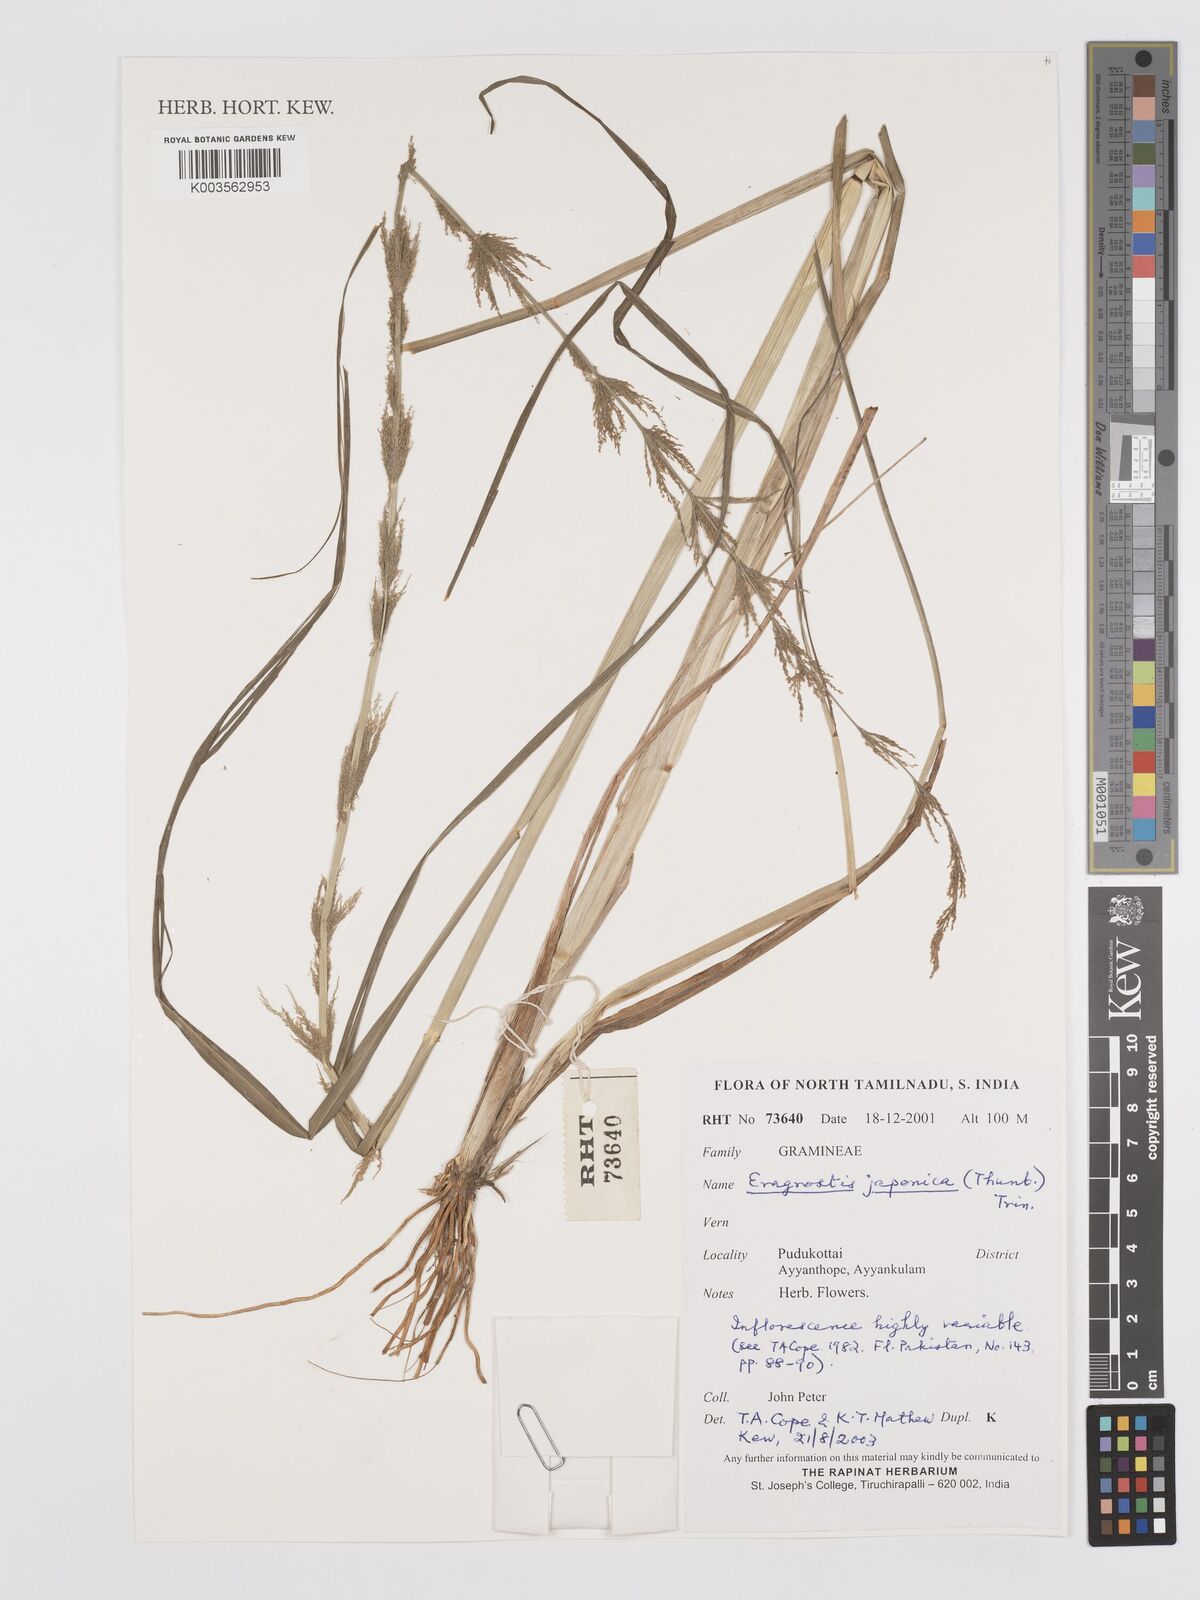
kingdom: Plantae
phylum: Tracheophyta
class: Liliopsida
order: Poales
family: Poaceae
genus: Eragrostis
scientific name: Eragrostis japonica
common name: Pond lovegrass
